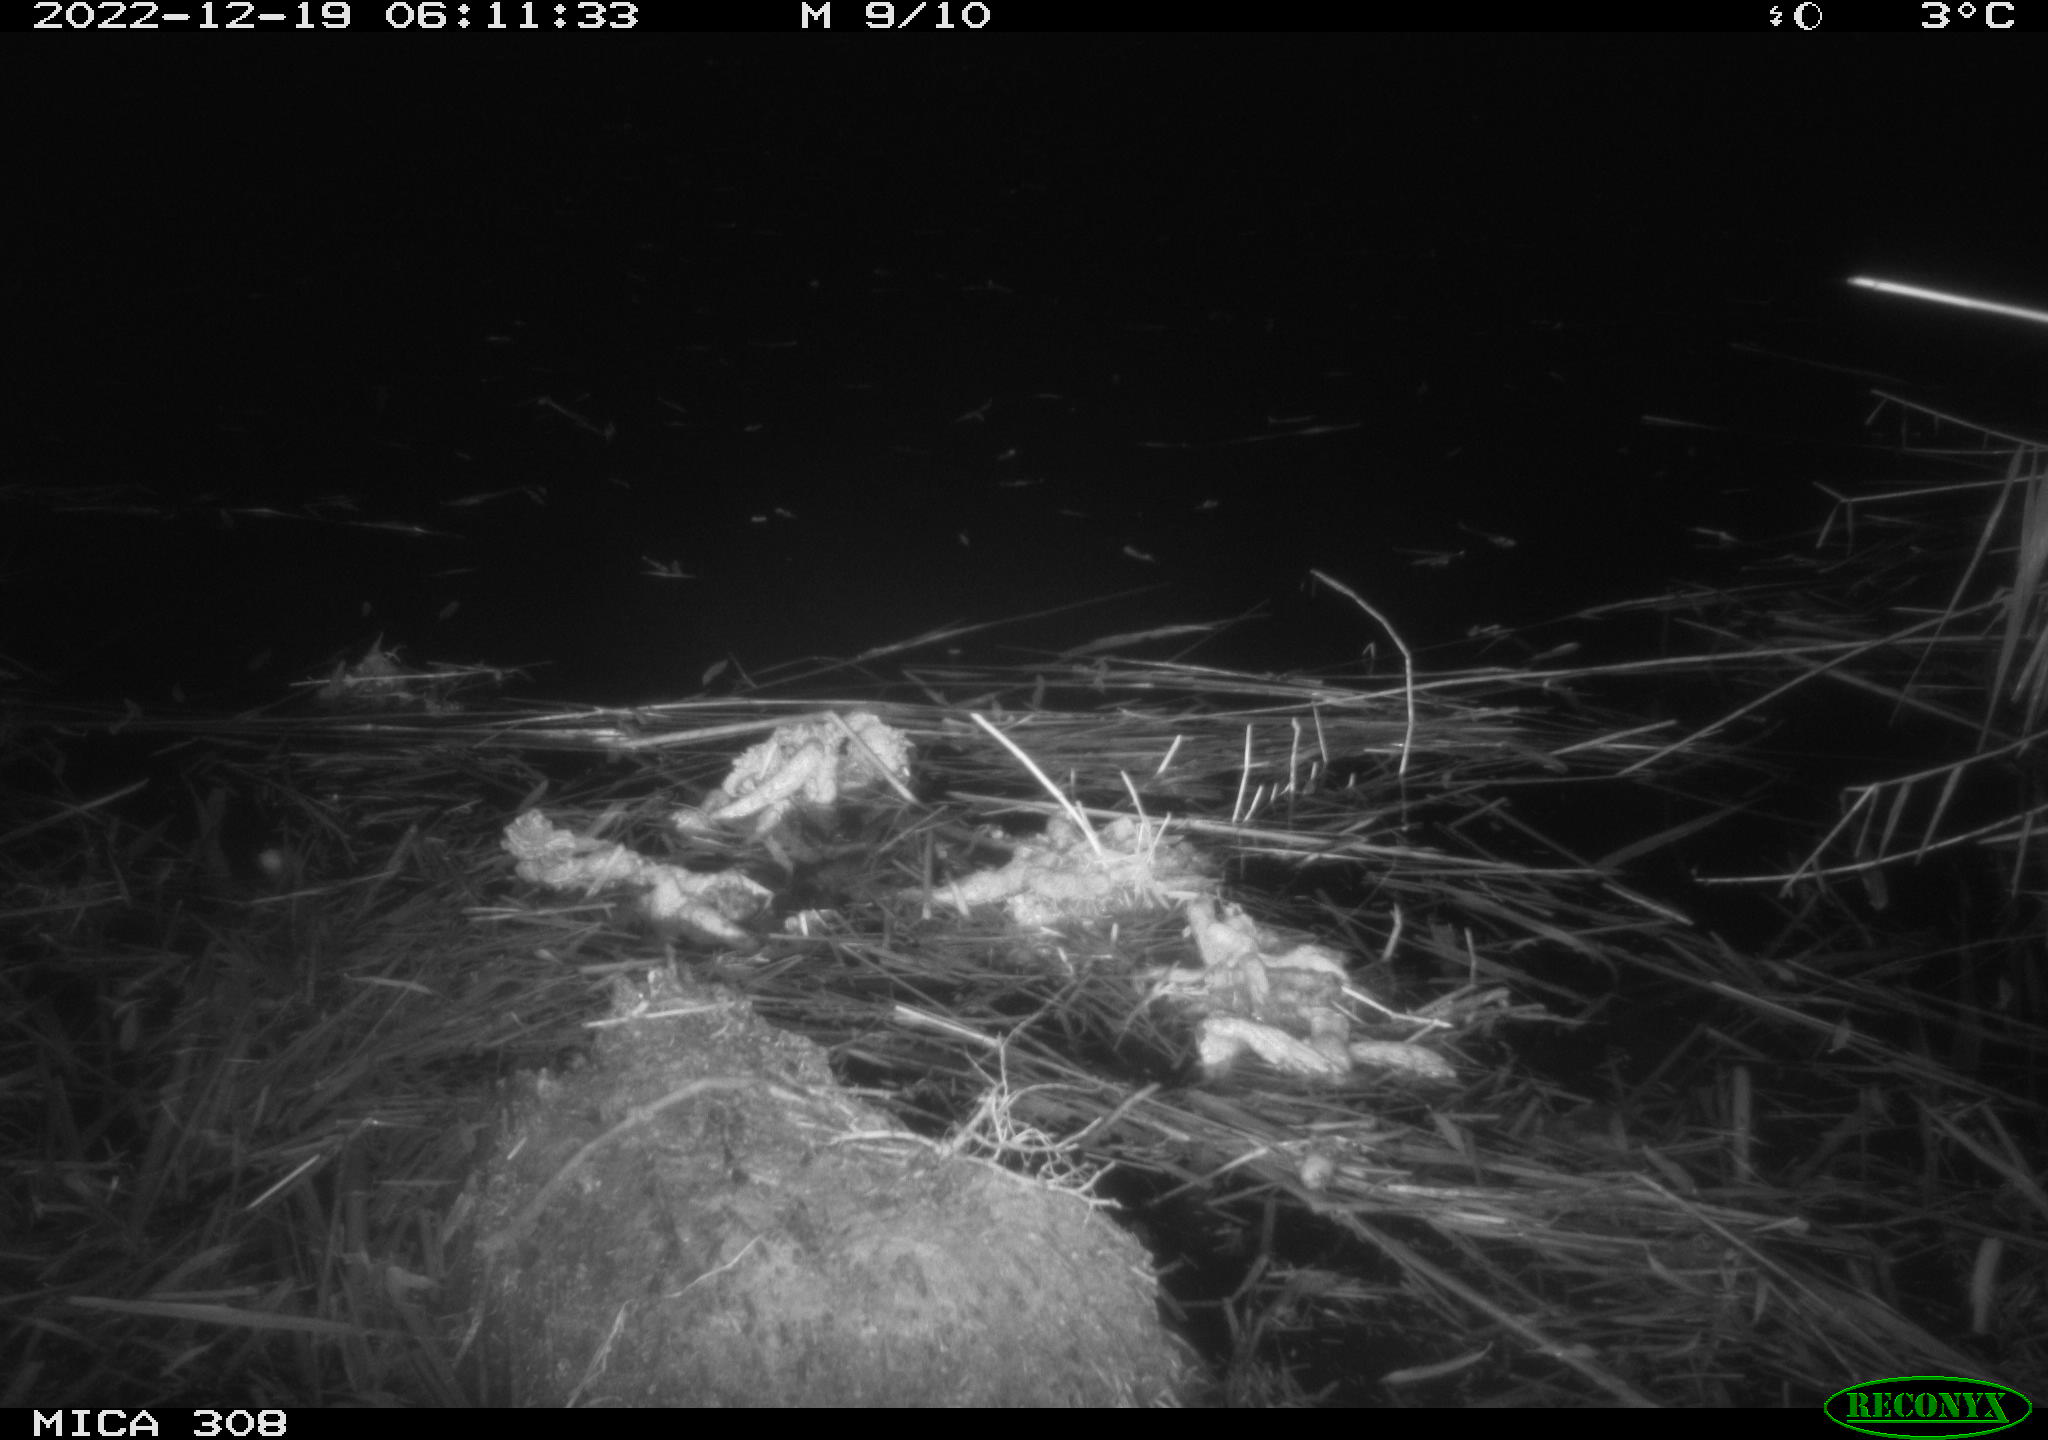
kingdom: Animalia
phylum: Chordata
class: Mammalia
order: Rodentia
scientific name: Rodentia
